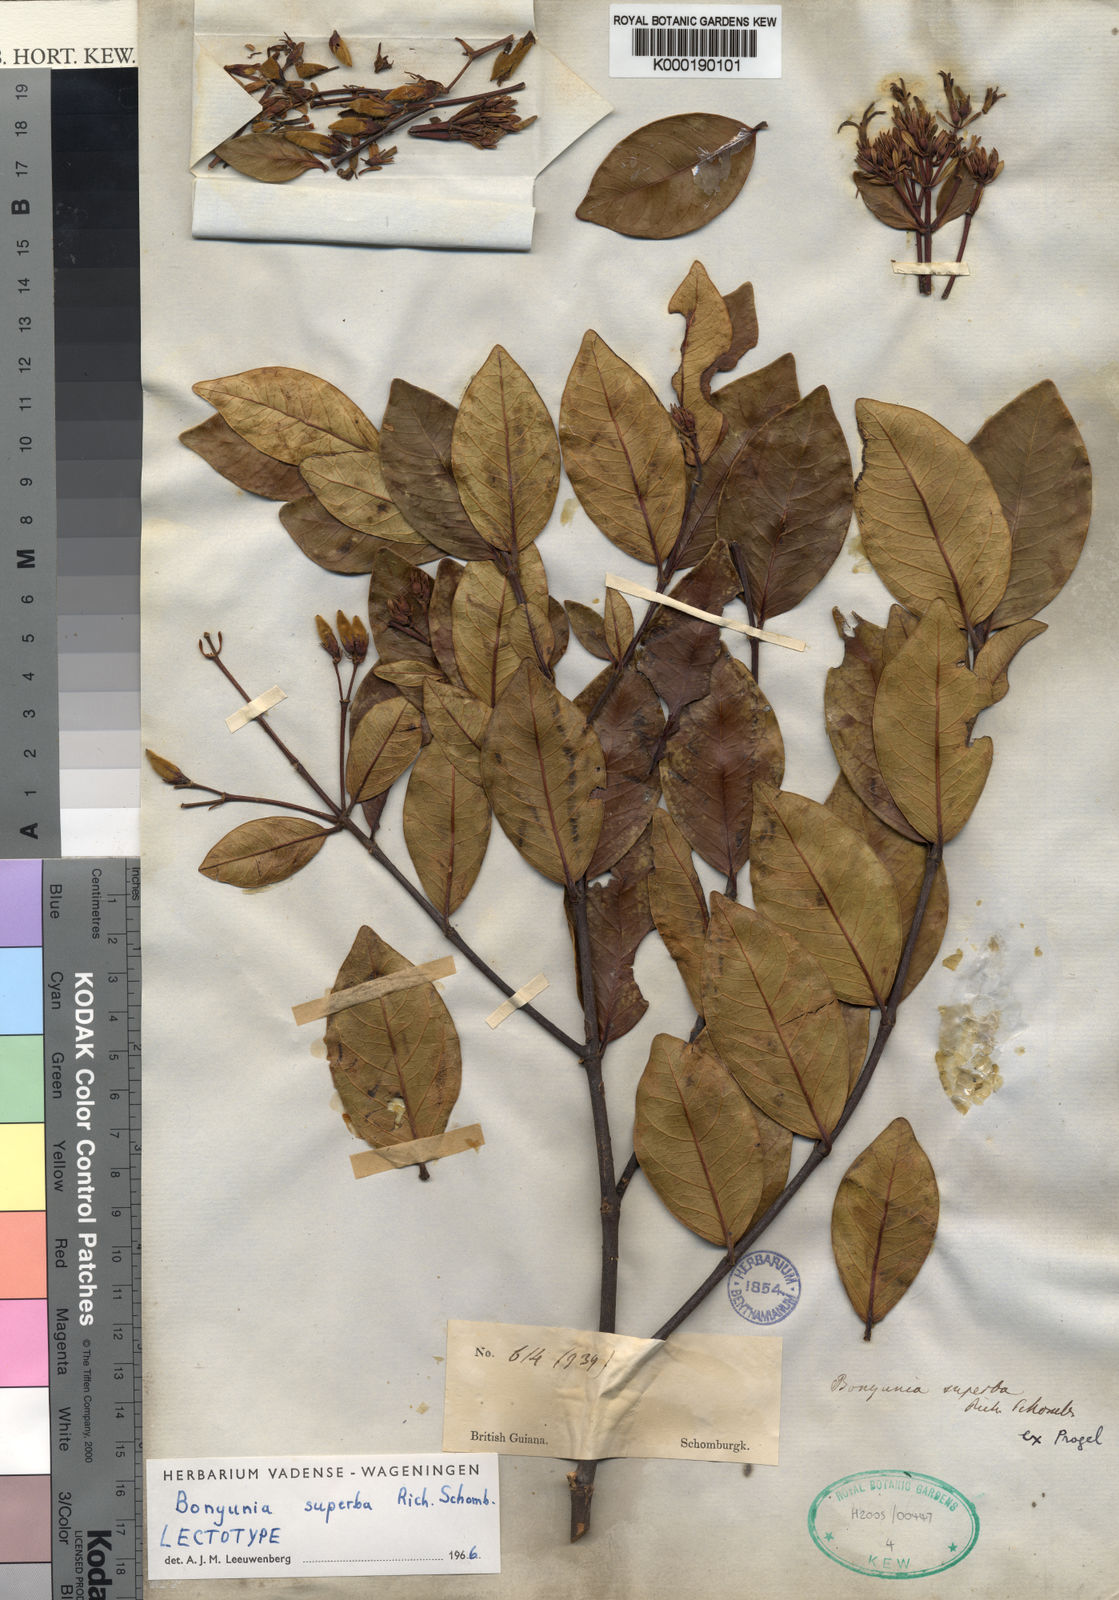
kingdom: Plantae
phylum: Tracheophyta
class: Magnoliopsida
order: Gentianales
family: Loganiaceae
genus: Bonyunia
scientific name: Bonyunia superba
